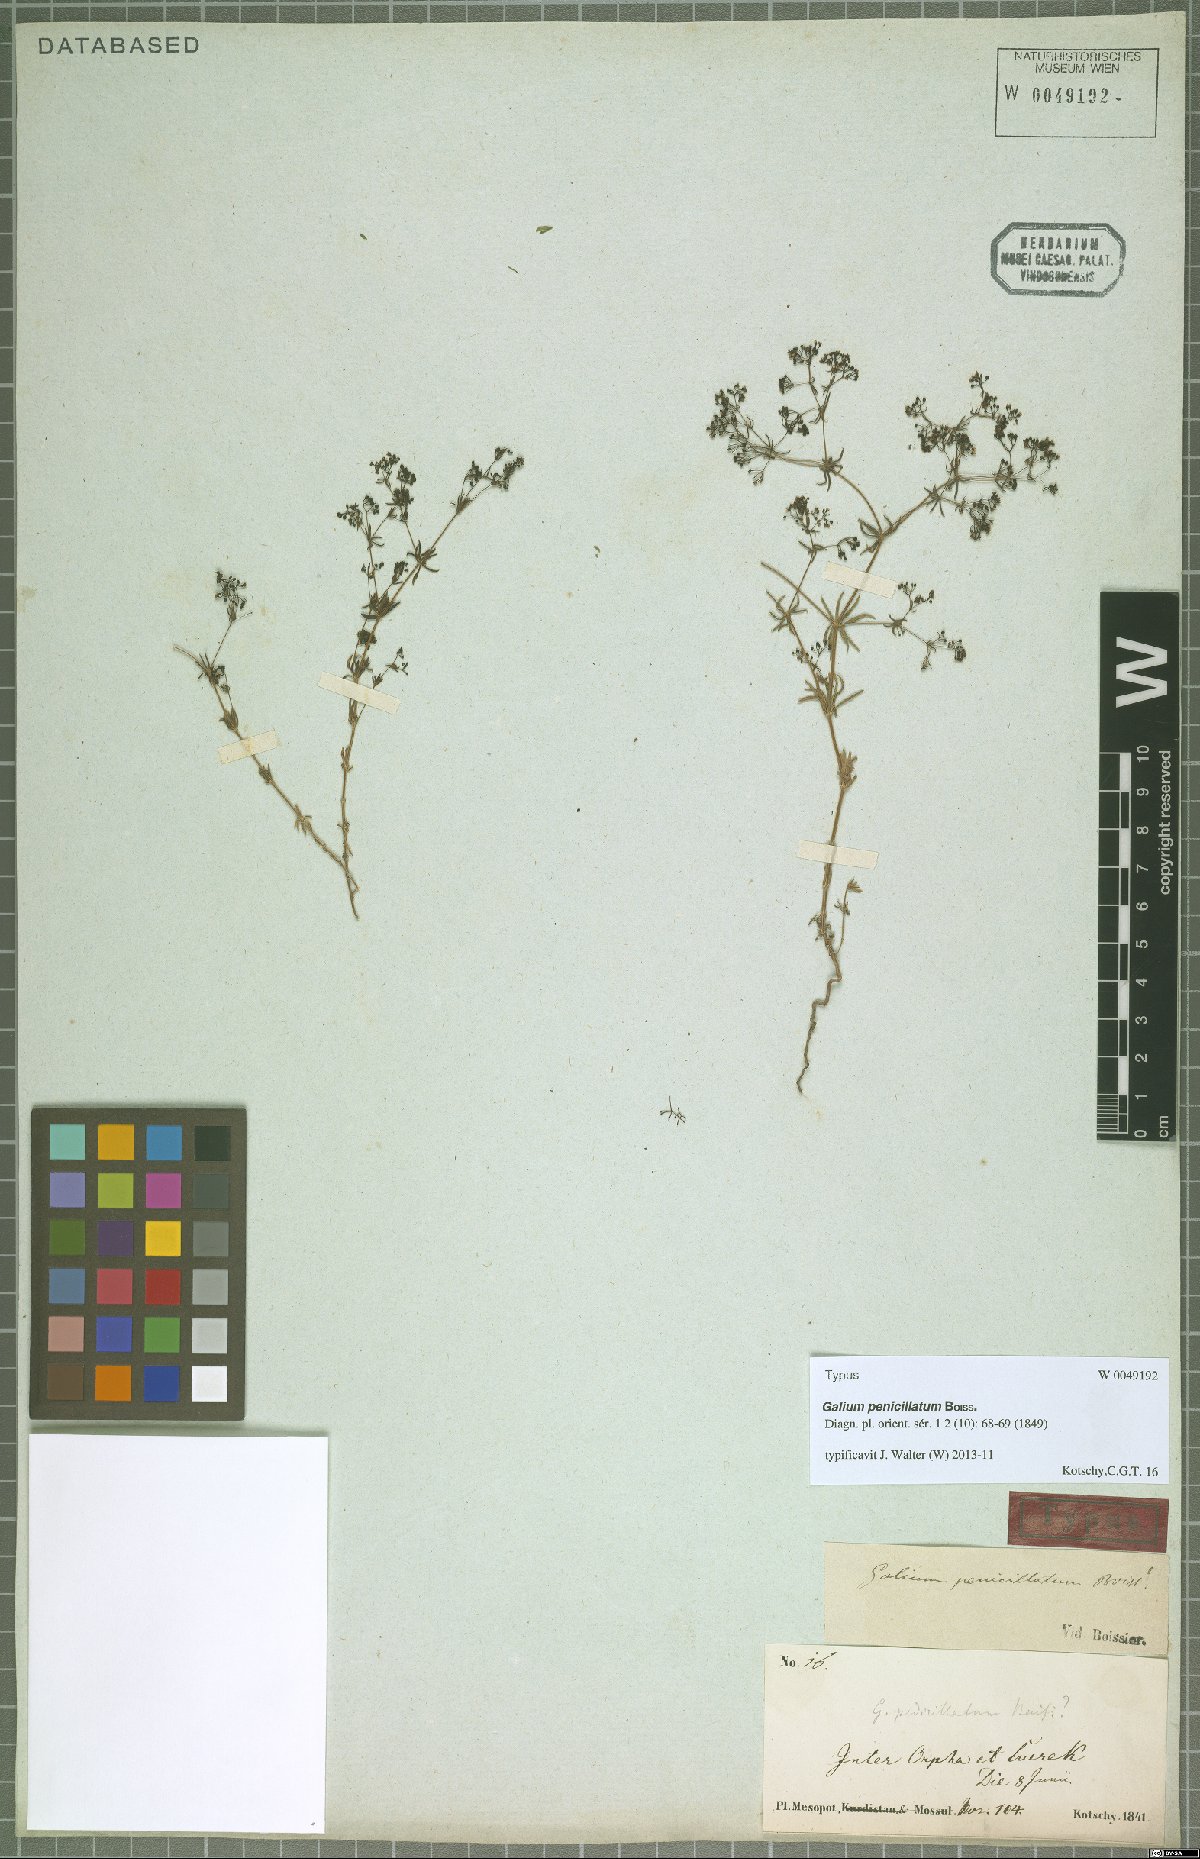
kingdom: Plantae
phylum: Tracheophyta
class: Magnoliopsida
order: Gentianales
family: Rubiaceae
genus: Galium
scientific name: Galium penicillatum
